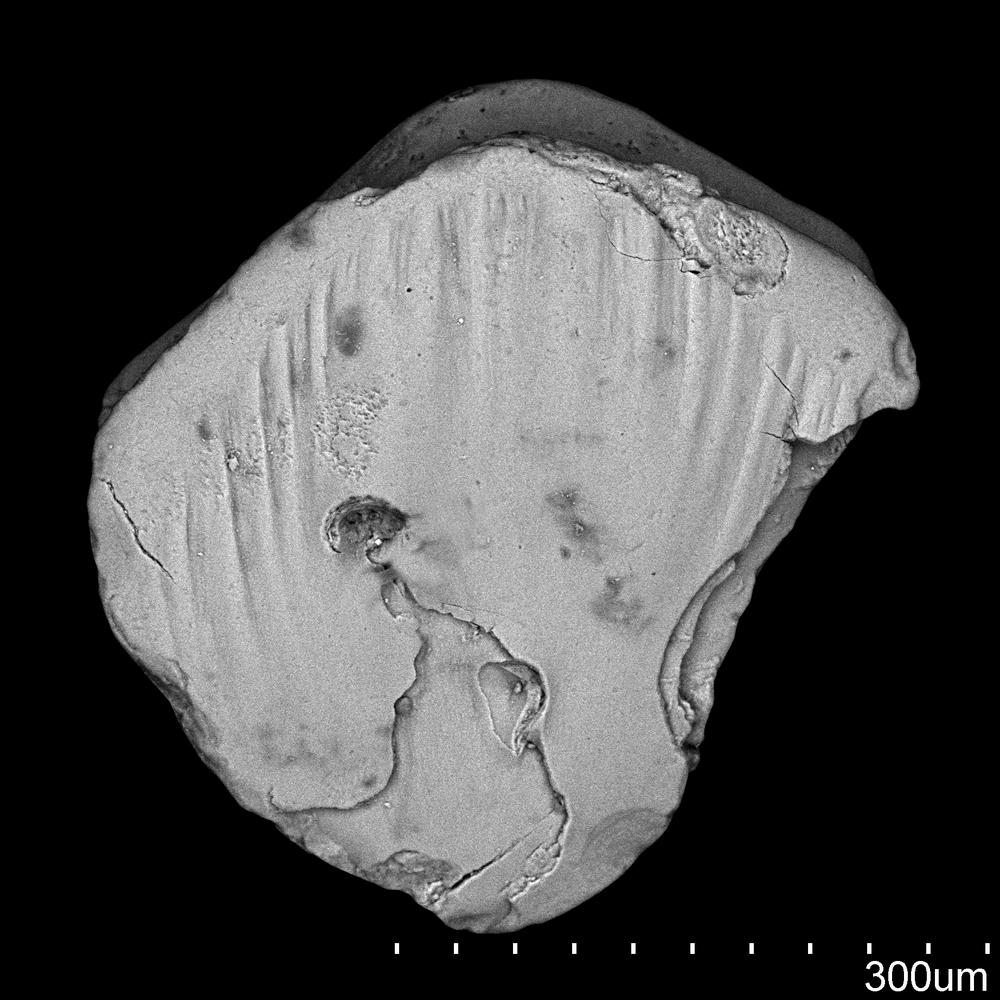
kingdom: Animalia
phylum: Chordata
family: Acanthodidae
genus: Cheiracanthus
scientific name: Cheiracanthus brevicostatus
